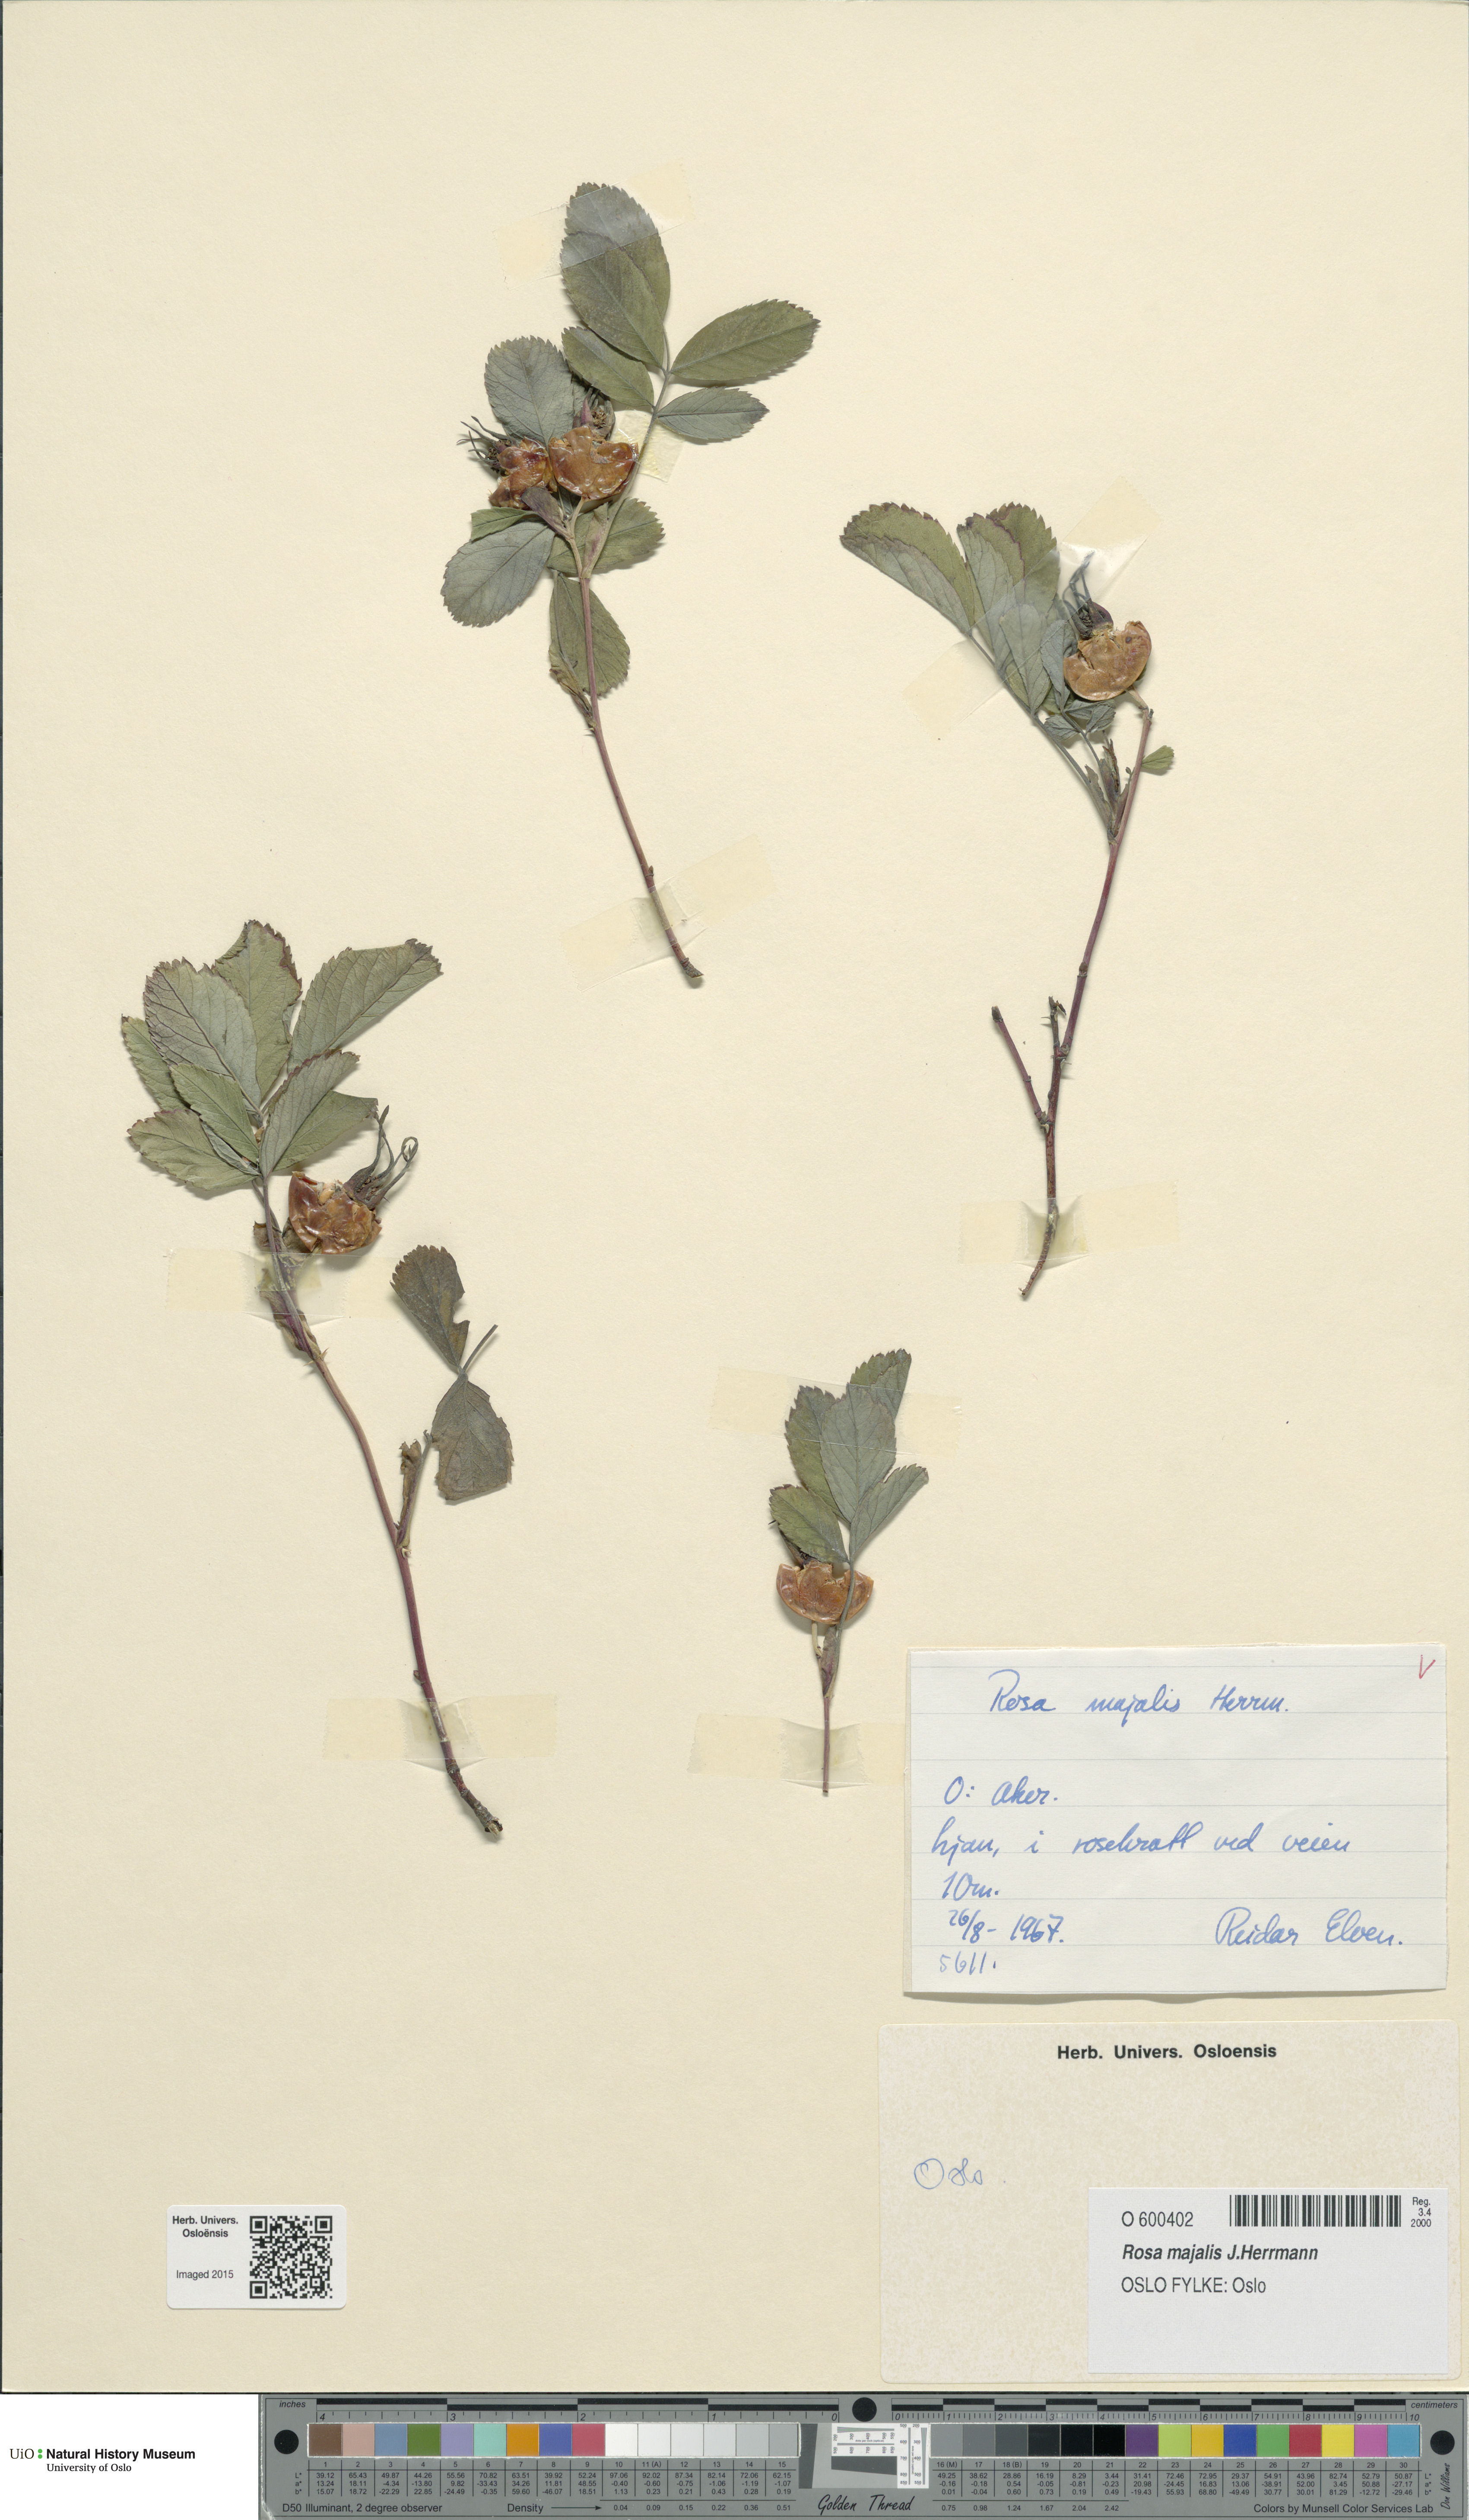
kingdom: Plantae
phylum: Tracheophyta
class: Magnoliopsida
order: Rosales
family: Rosaceae
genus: Rosa
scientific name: Rosa majalis
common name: Cinnamon rose
